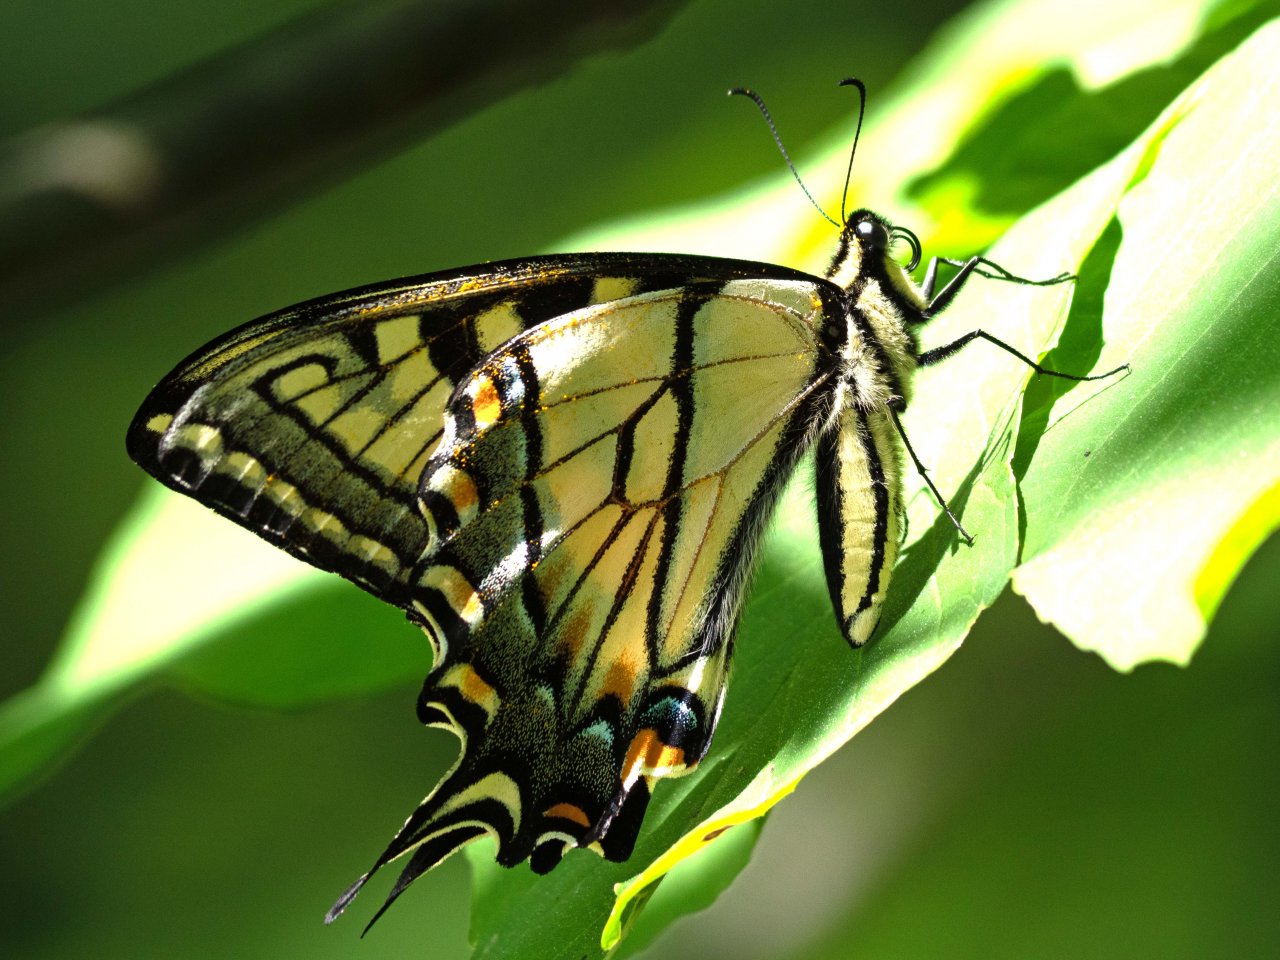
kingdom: Animalia
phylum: Arthropoda
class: Insecta
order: Lepidoptera
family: Papilionidae
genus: Pterourus
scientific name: Pterourus
